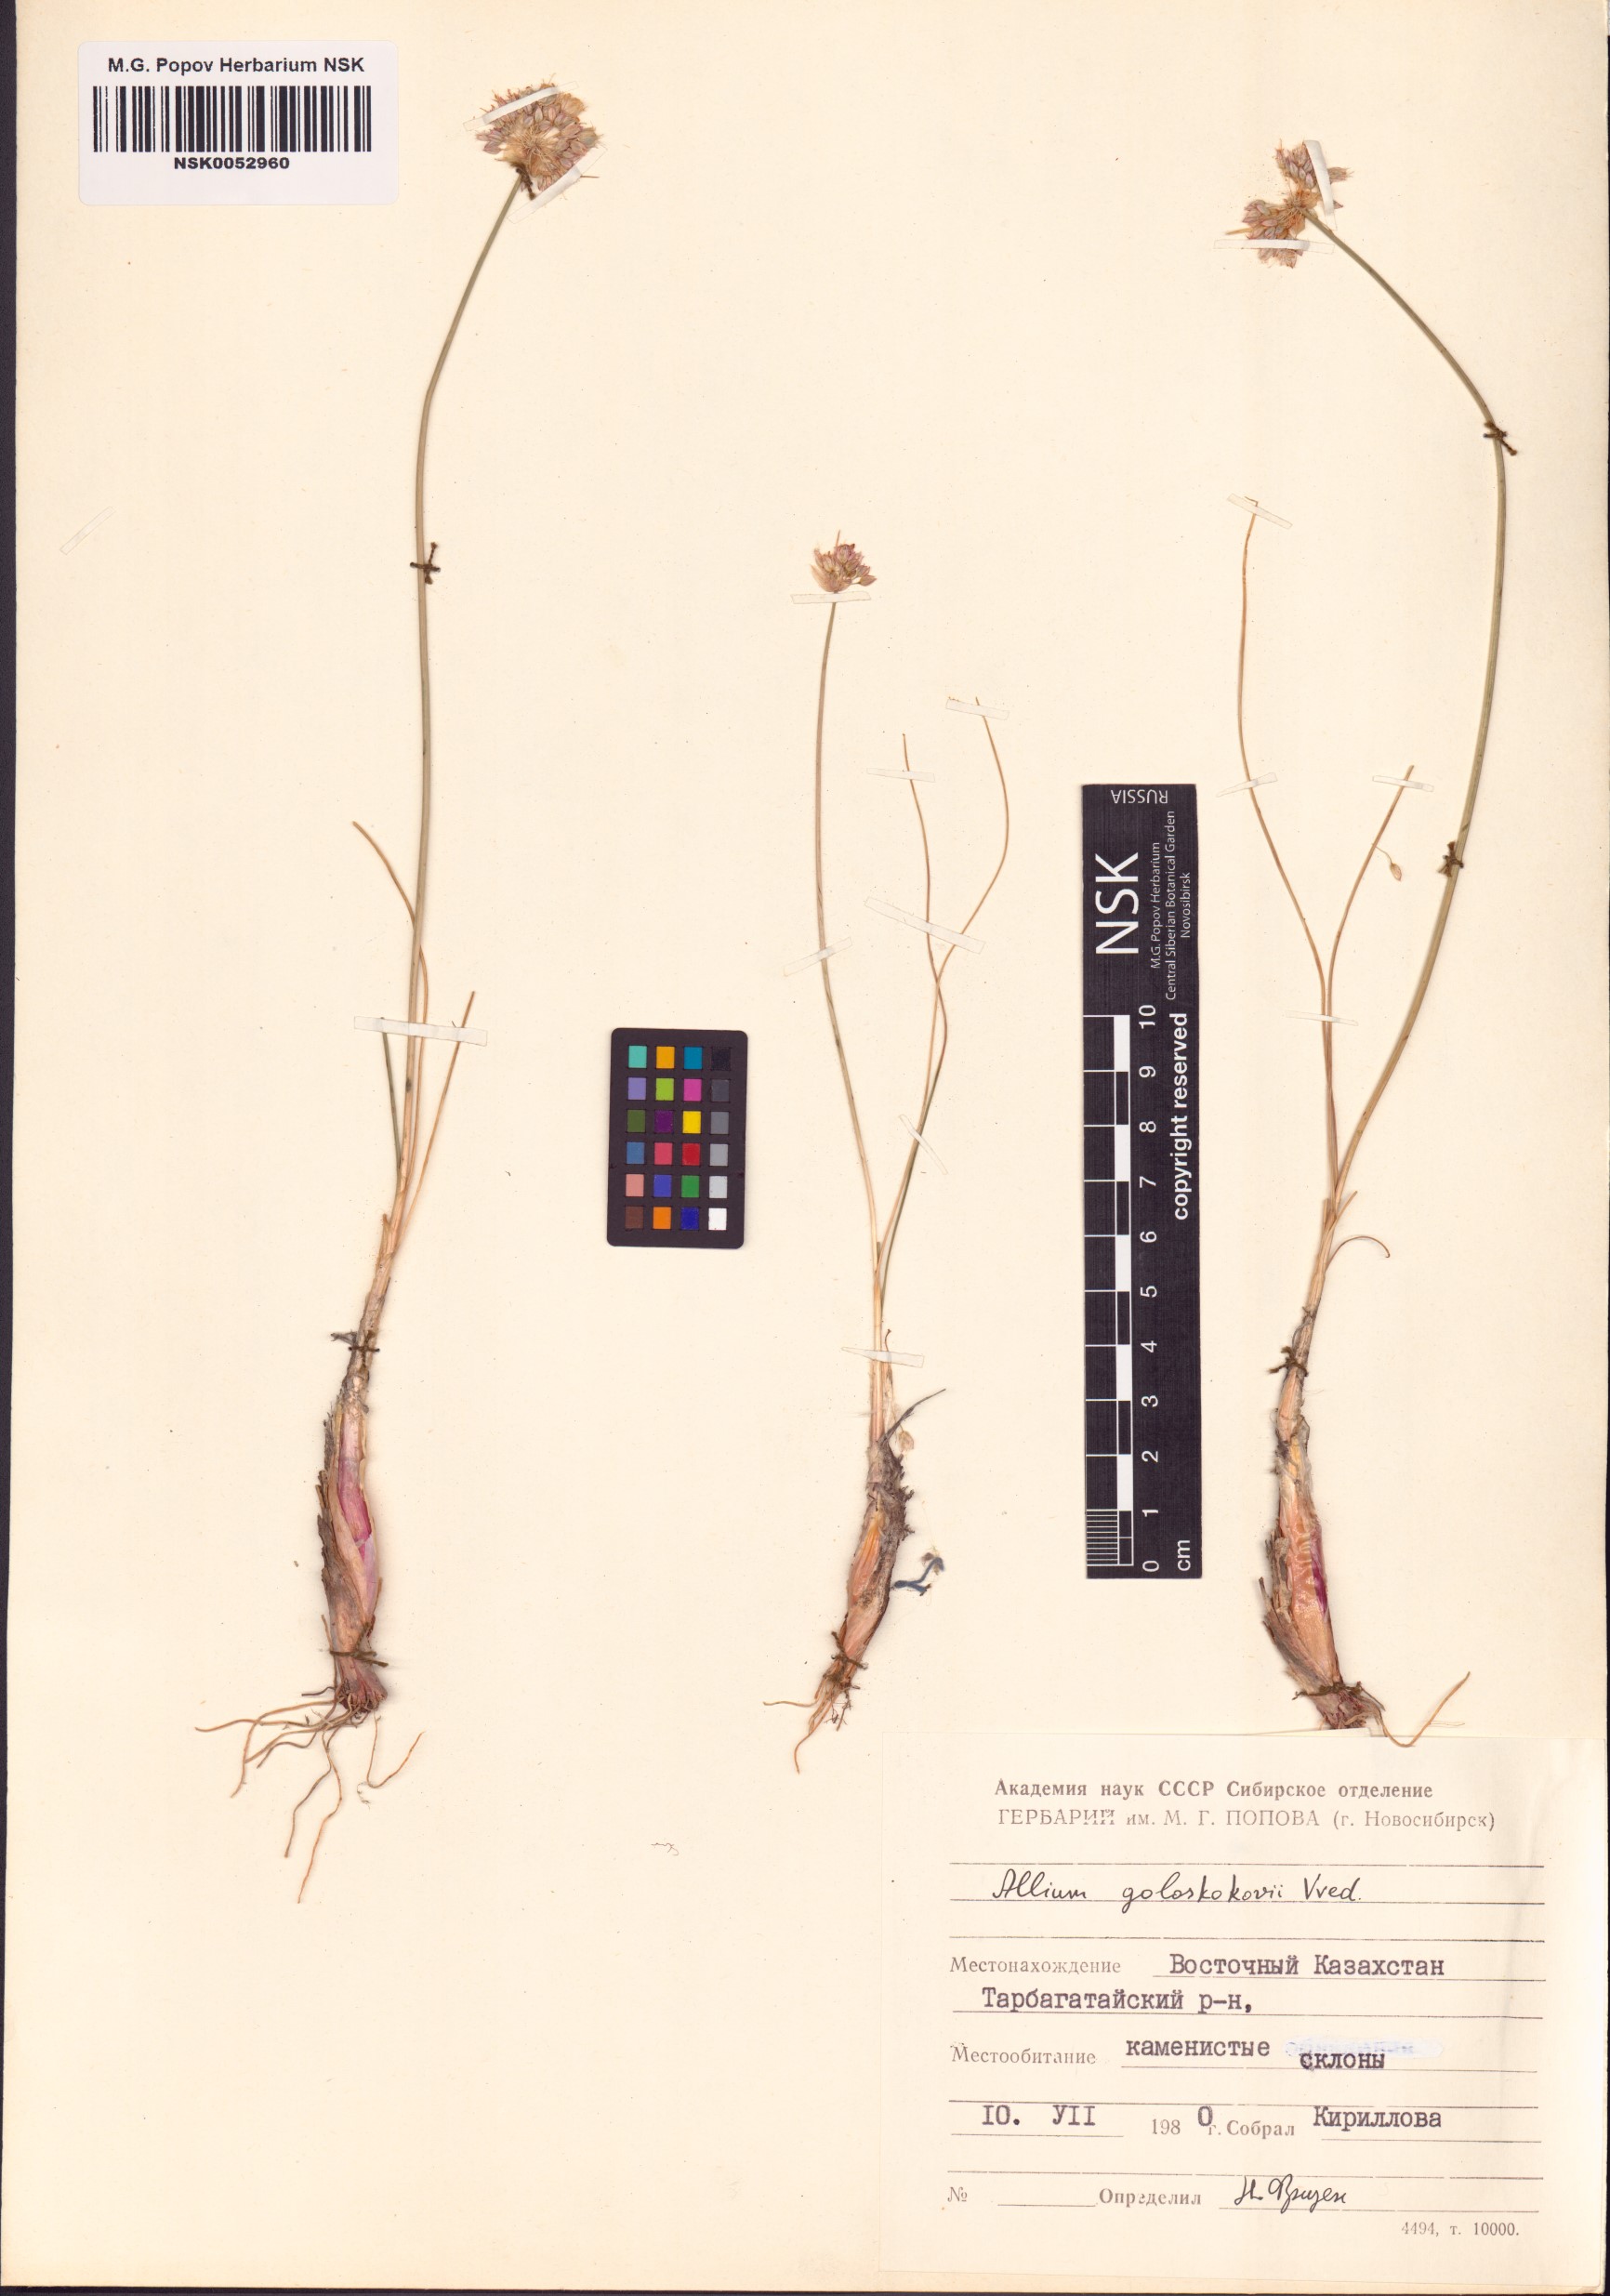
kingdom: Plantae
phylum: Tracheophyta
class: Liliopsida
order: Asparagales
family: Amaryllidaceae
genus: Allium
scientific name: Allium goloskokovii
